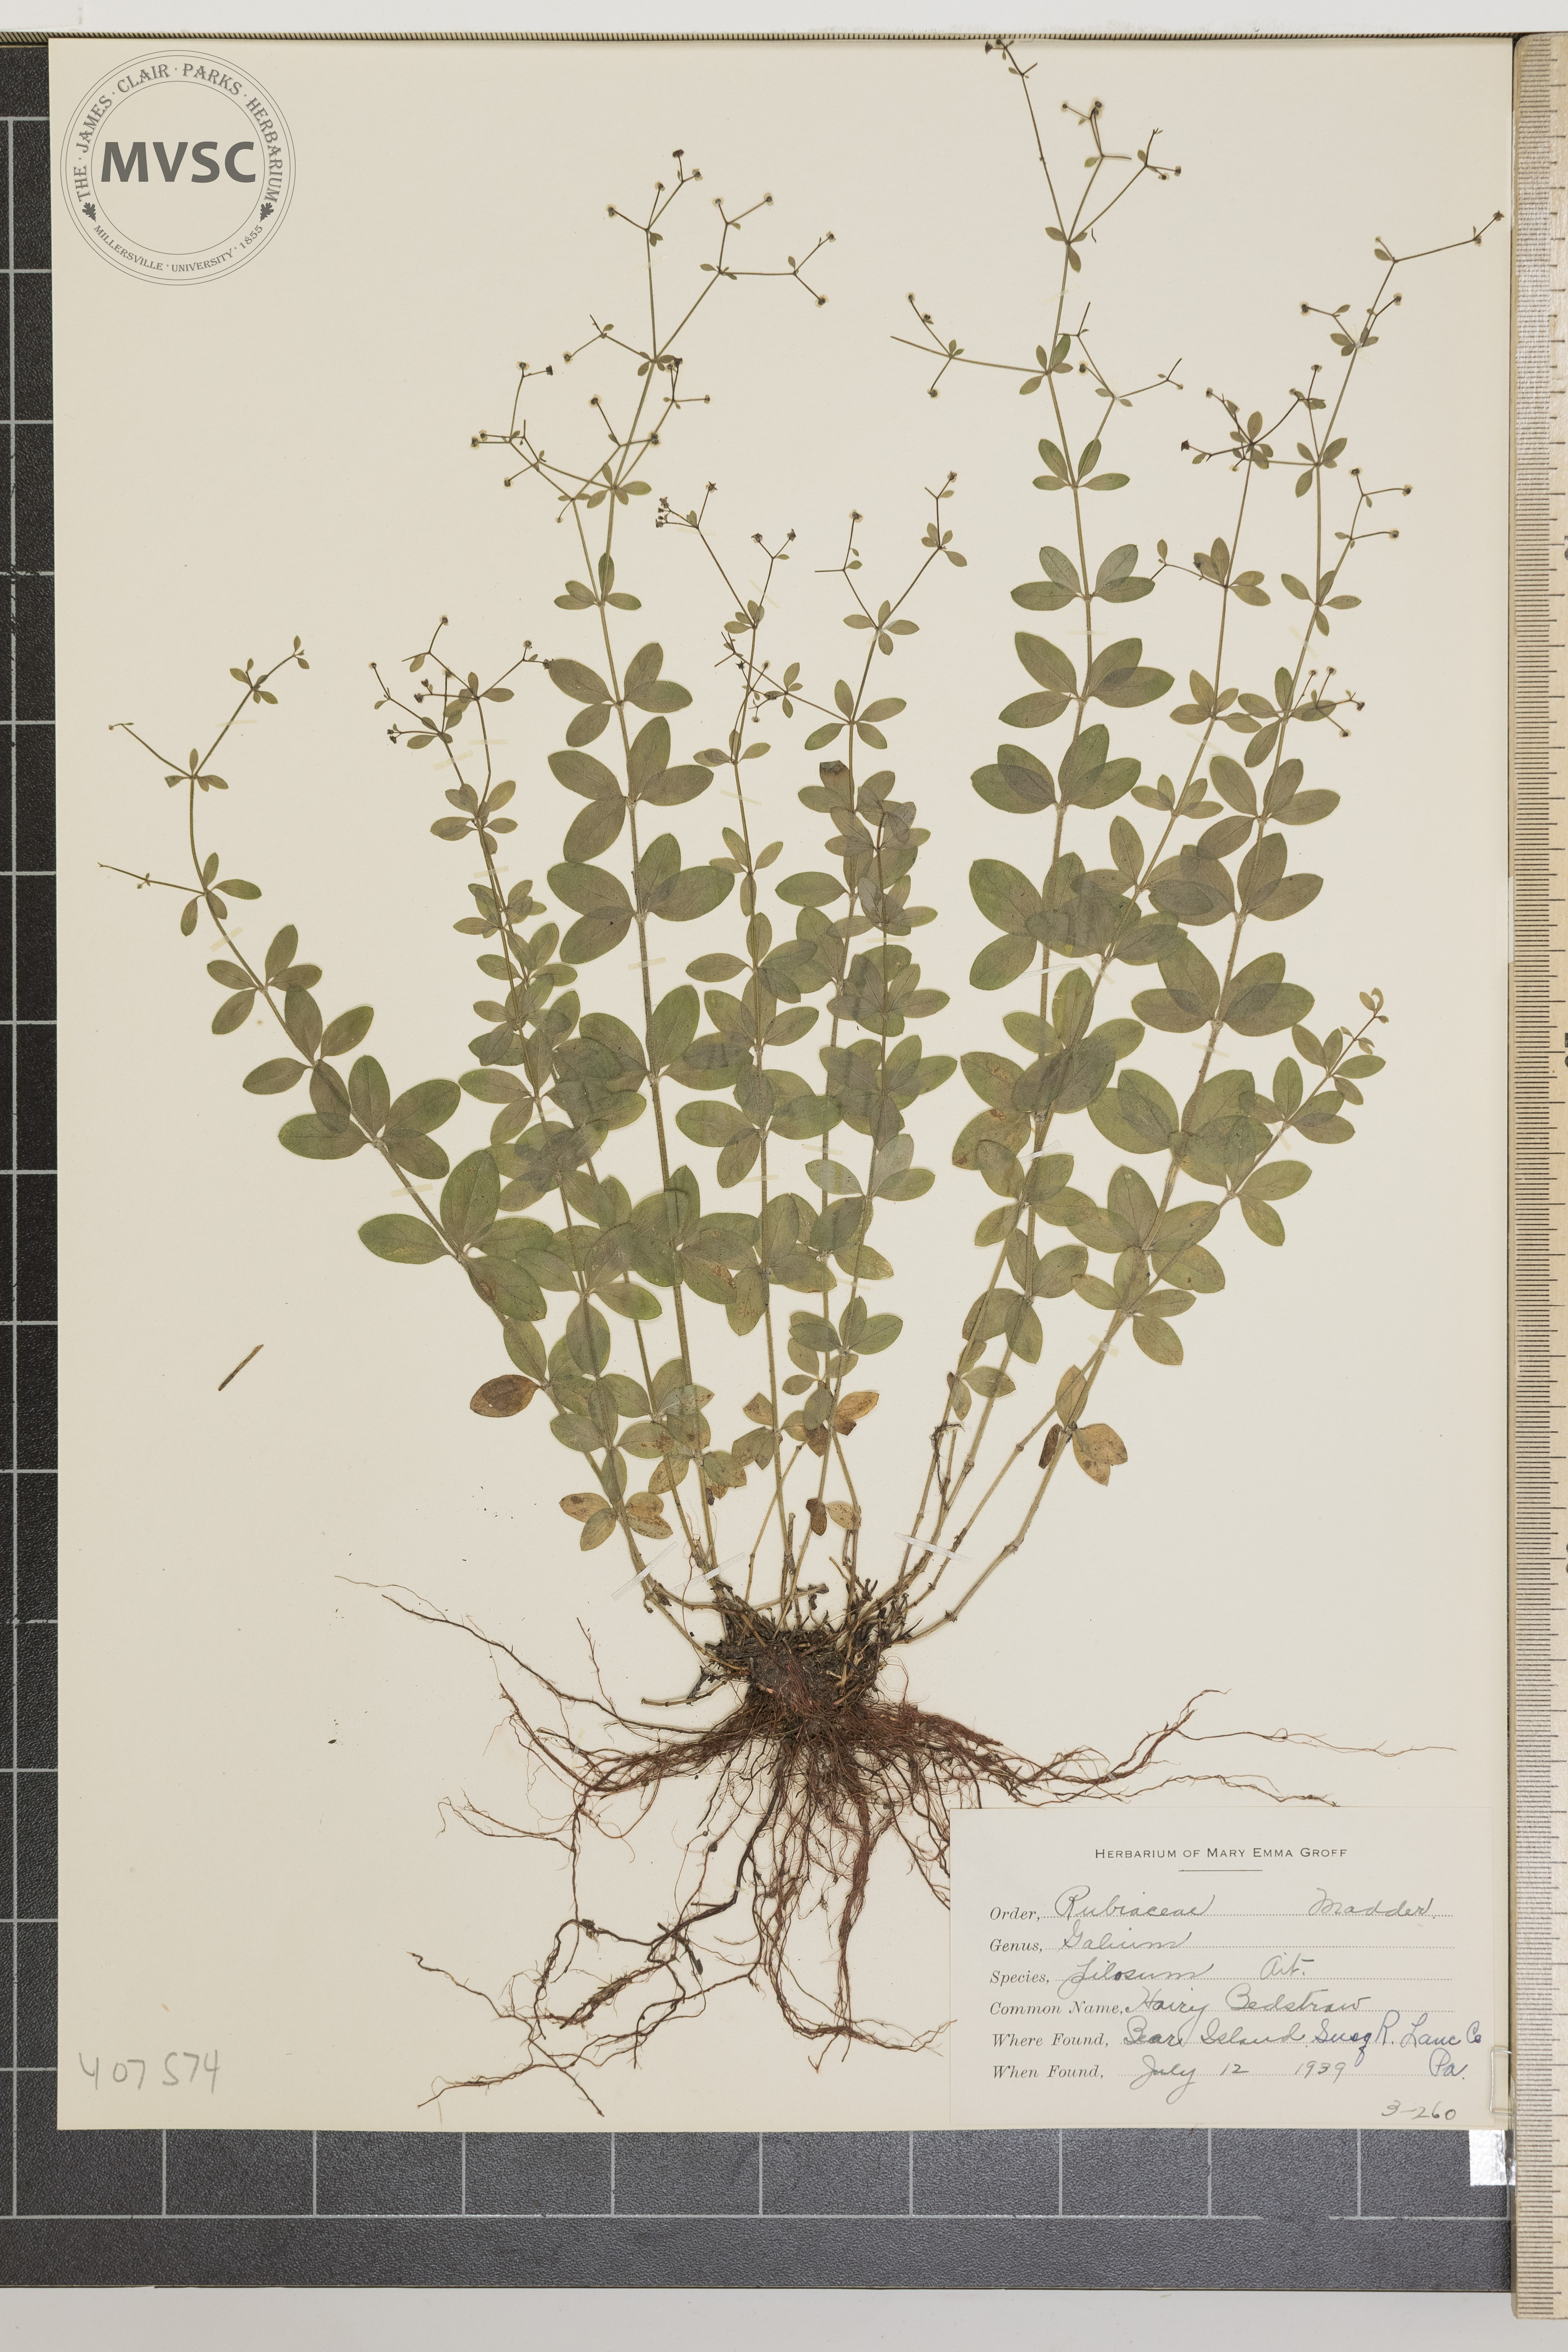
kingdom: Plantae
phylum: Tracheophyta
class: Magnoliopsida
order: Gentianales
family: Rubiaceae
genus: Galium
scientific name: Galium pilosum
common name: Hairy Bedstraw
